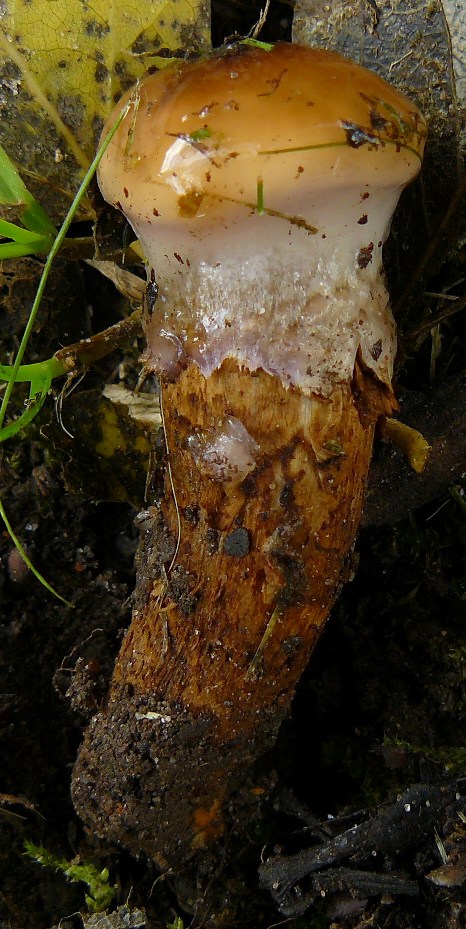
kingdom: Fungi
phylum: Basidiomycota
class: Agaricomycetes
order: Agaricales
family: Cortinariaceae
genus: Cortinarius
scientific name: Cortinarius trivialis
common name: brunslimet slørhat
